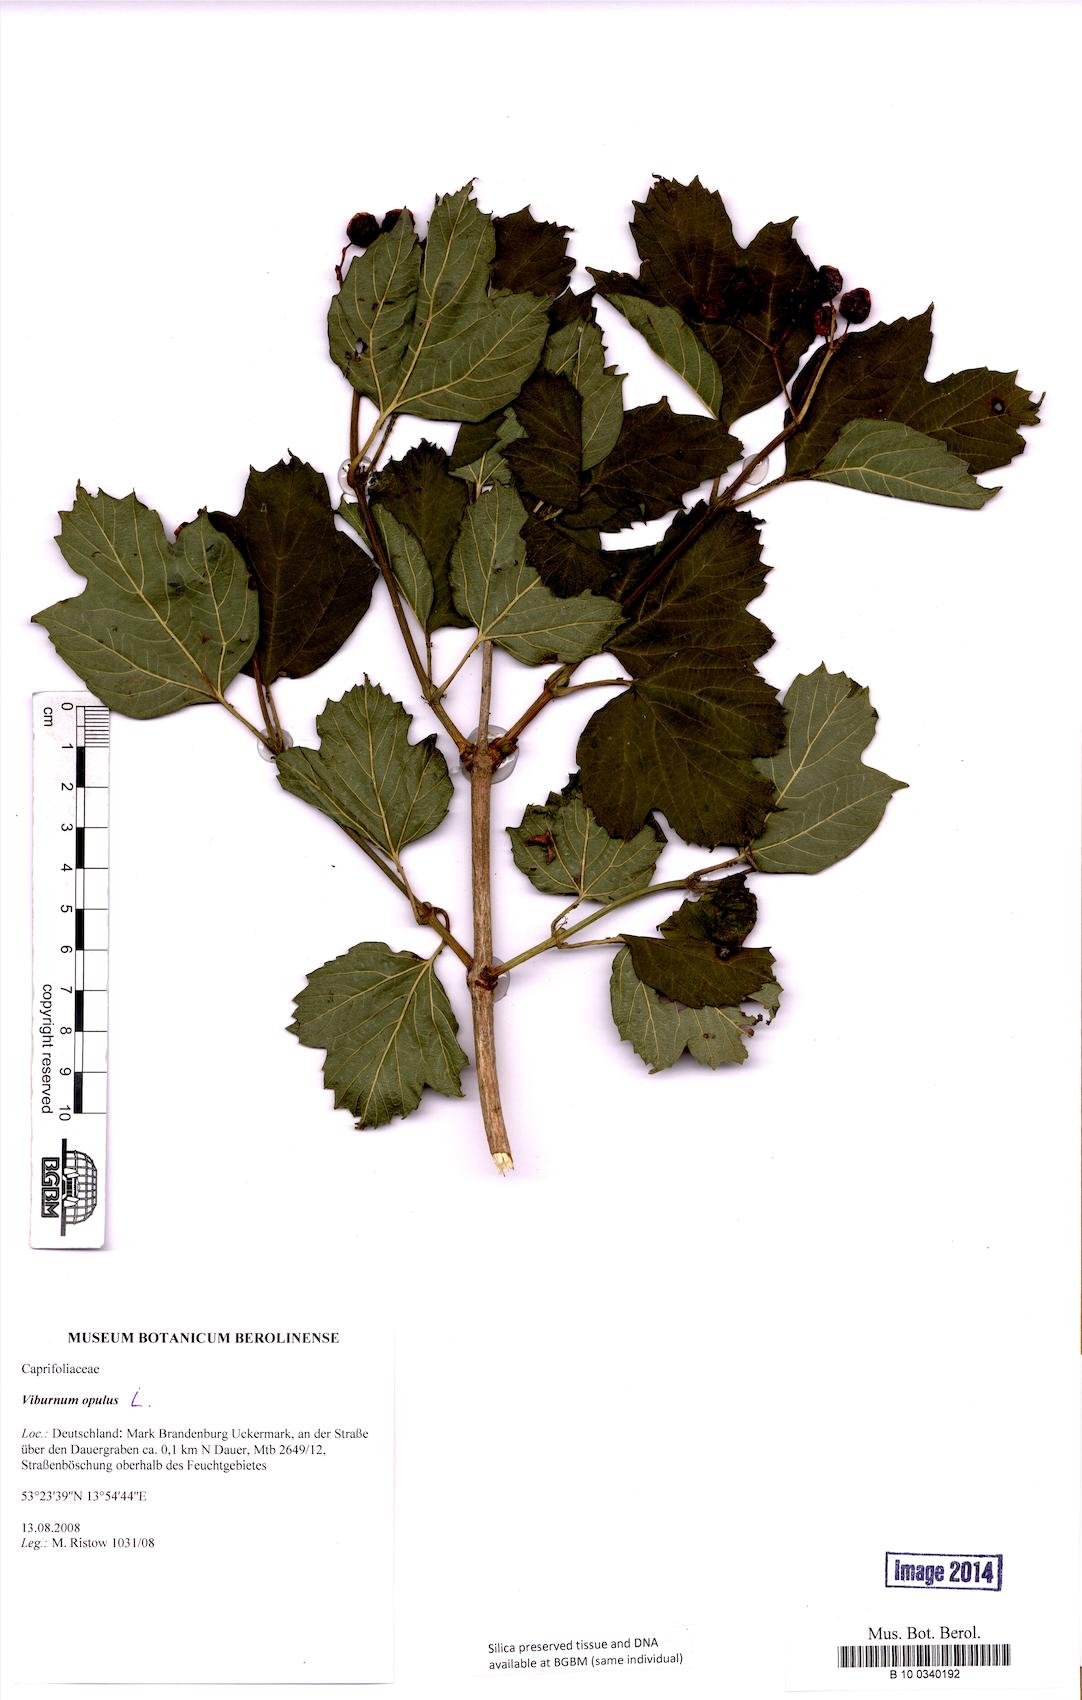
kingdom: Plantae
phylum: Tracheophyta
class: Magnoliopsida
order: Dipsacales
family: Viburnaceae
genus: Viburnum
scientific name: Viburnum opulus
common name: Guelder-rose
